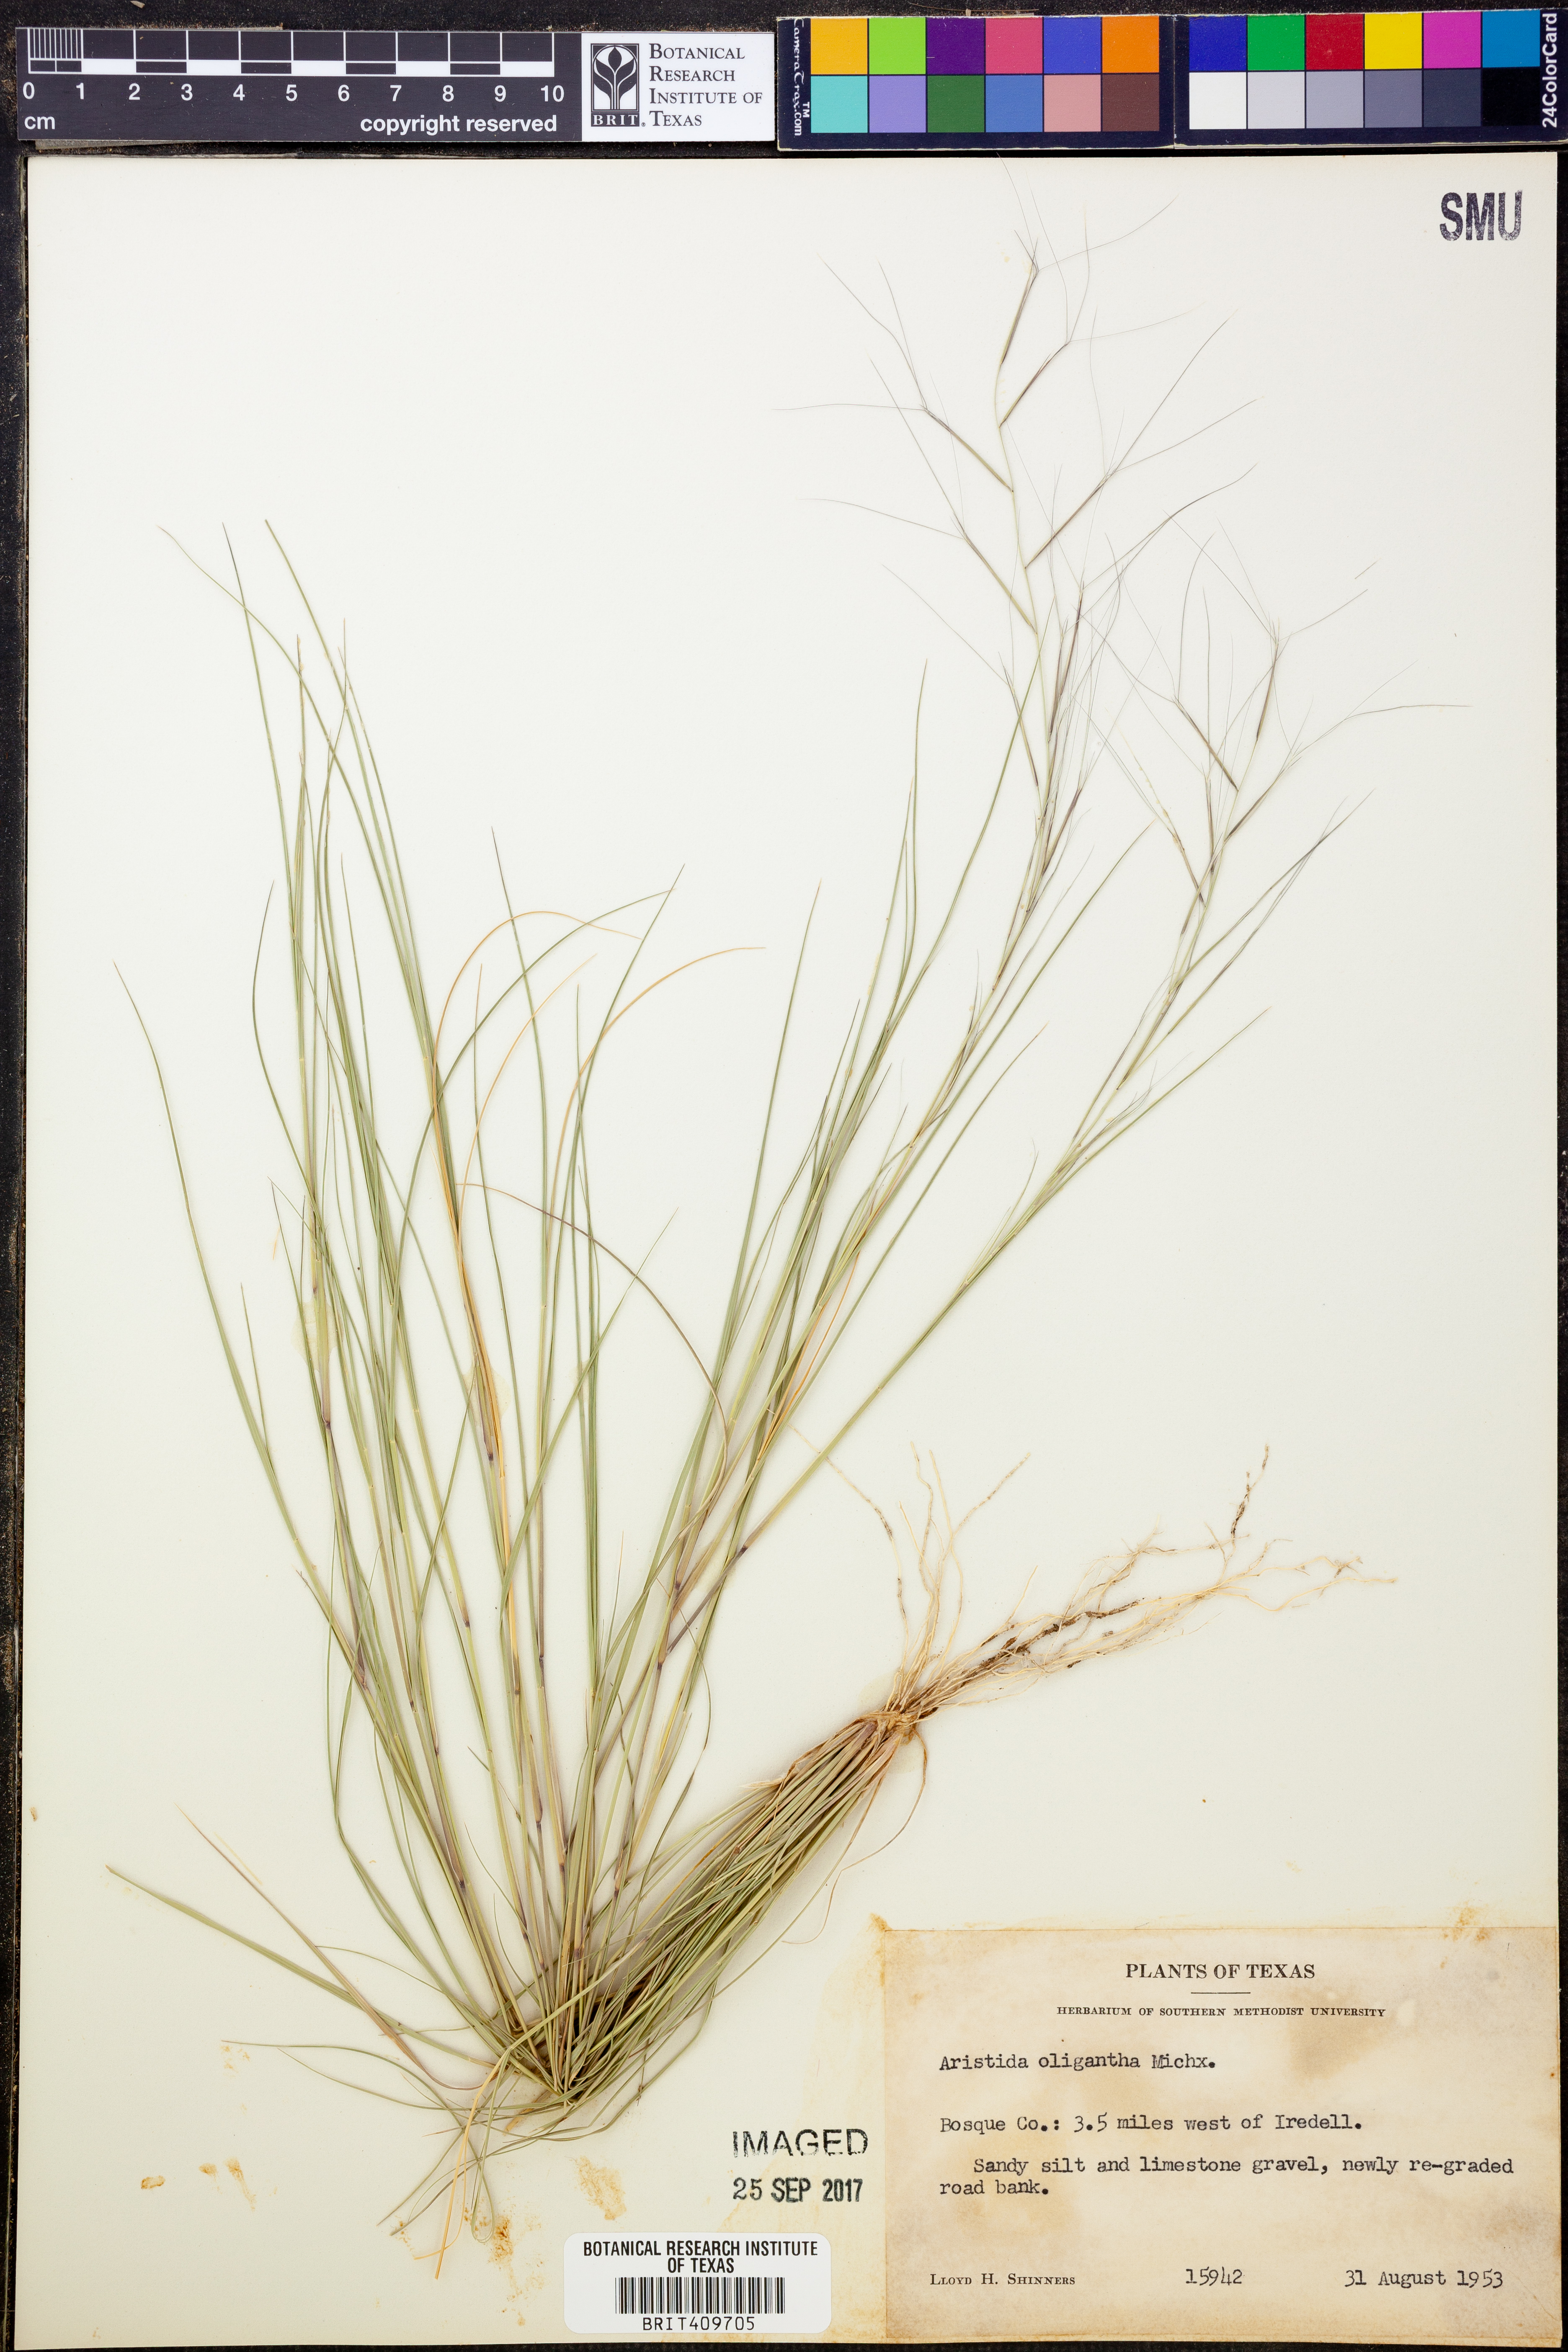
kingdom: Plantae
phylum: Tracheophyta
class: Liliopsida
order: Poales
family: Poaceae
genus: Aristida
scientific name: Aristida oligantha
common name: Few-flowered aristida
